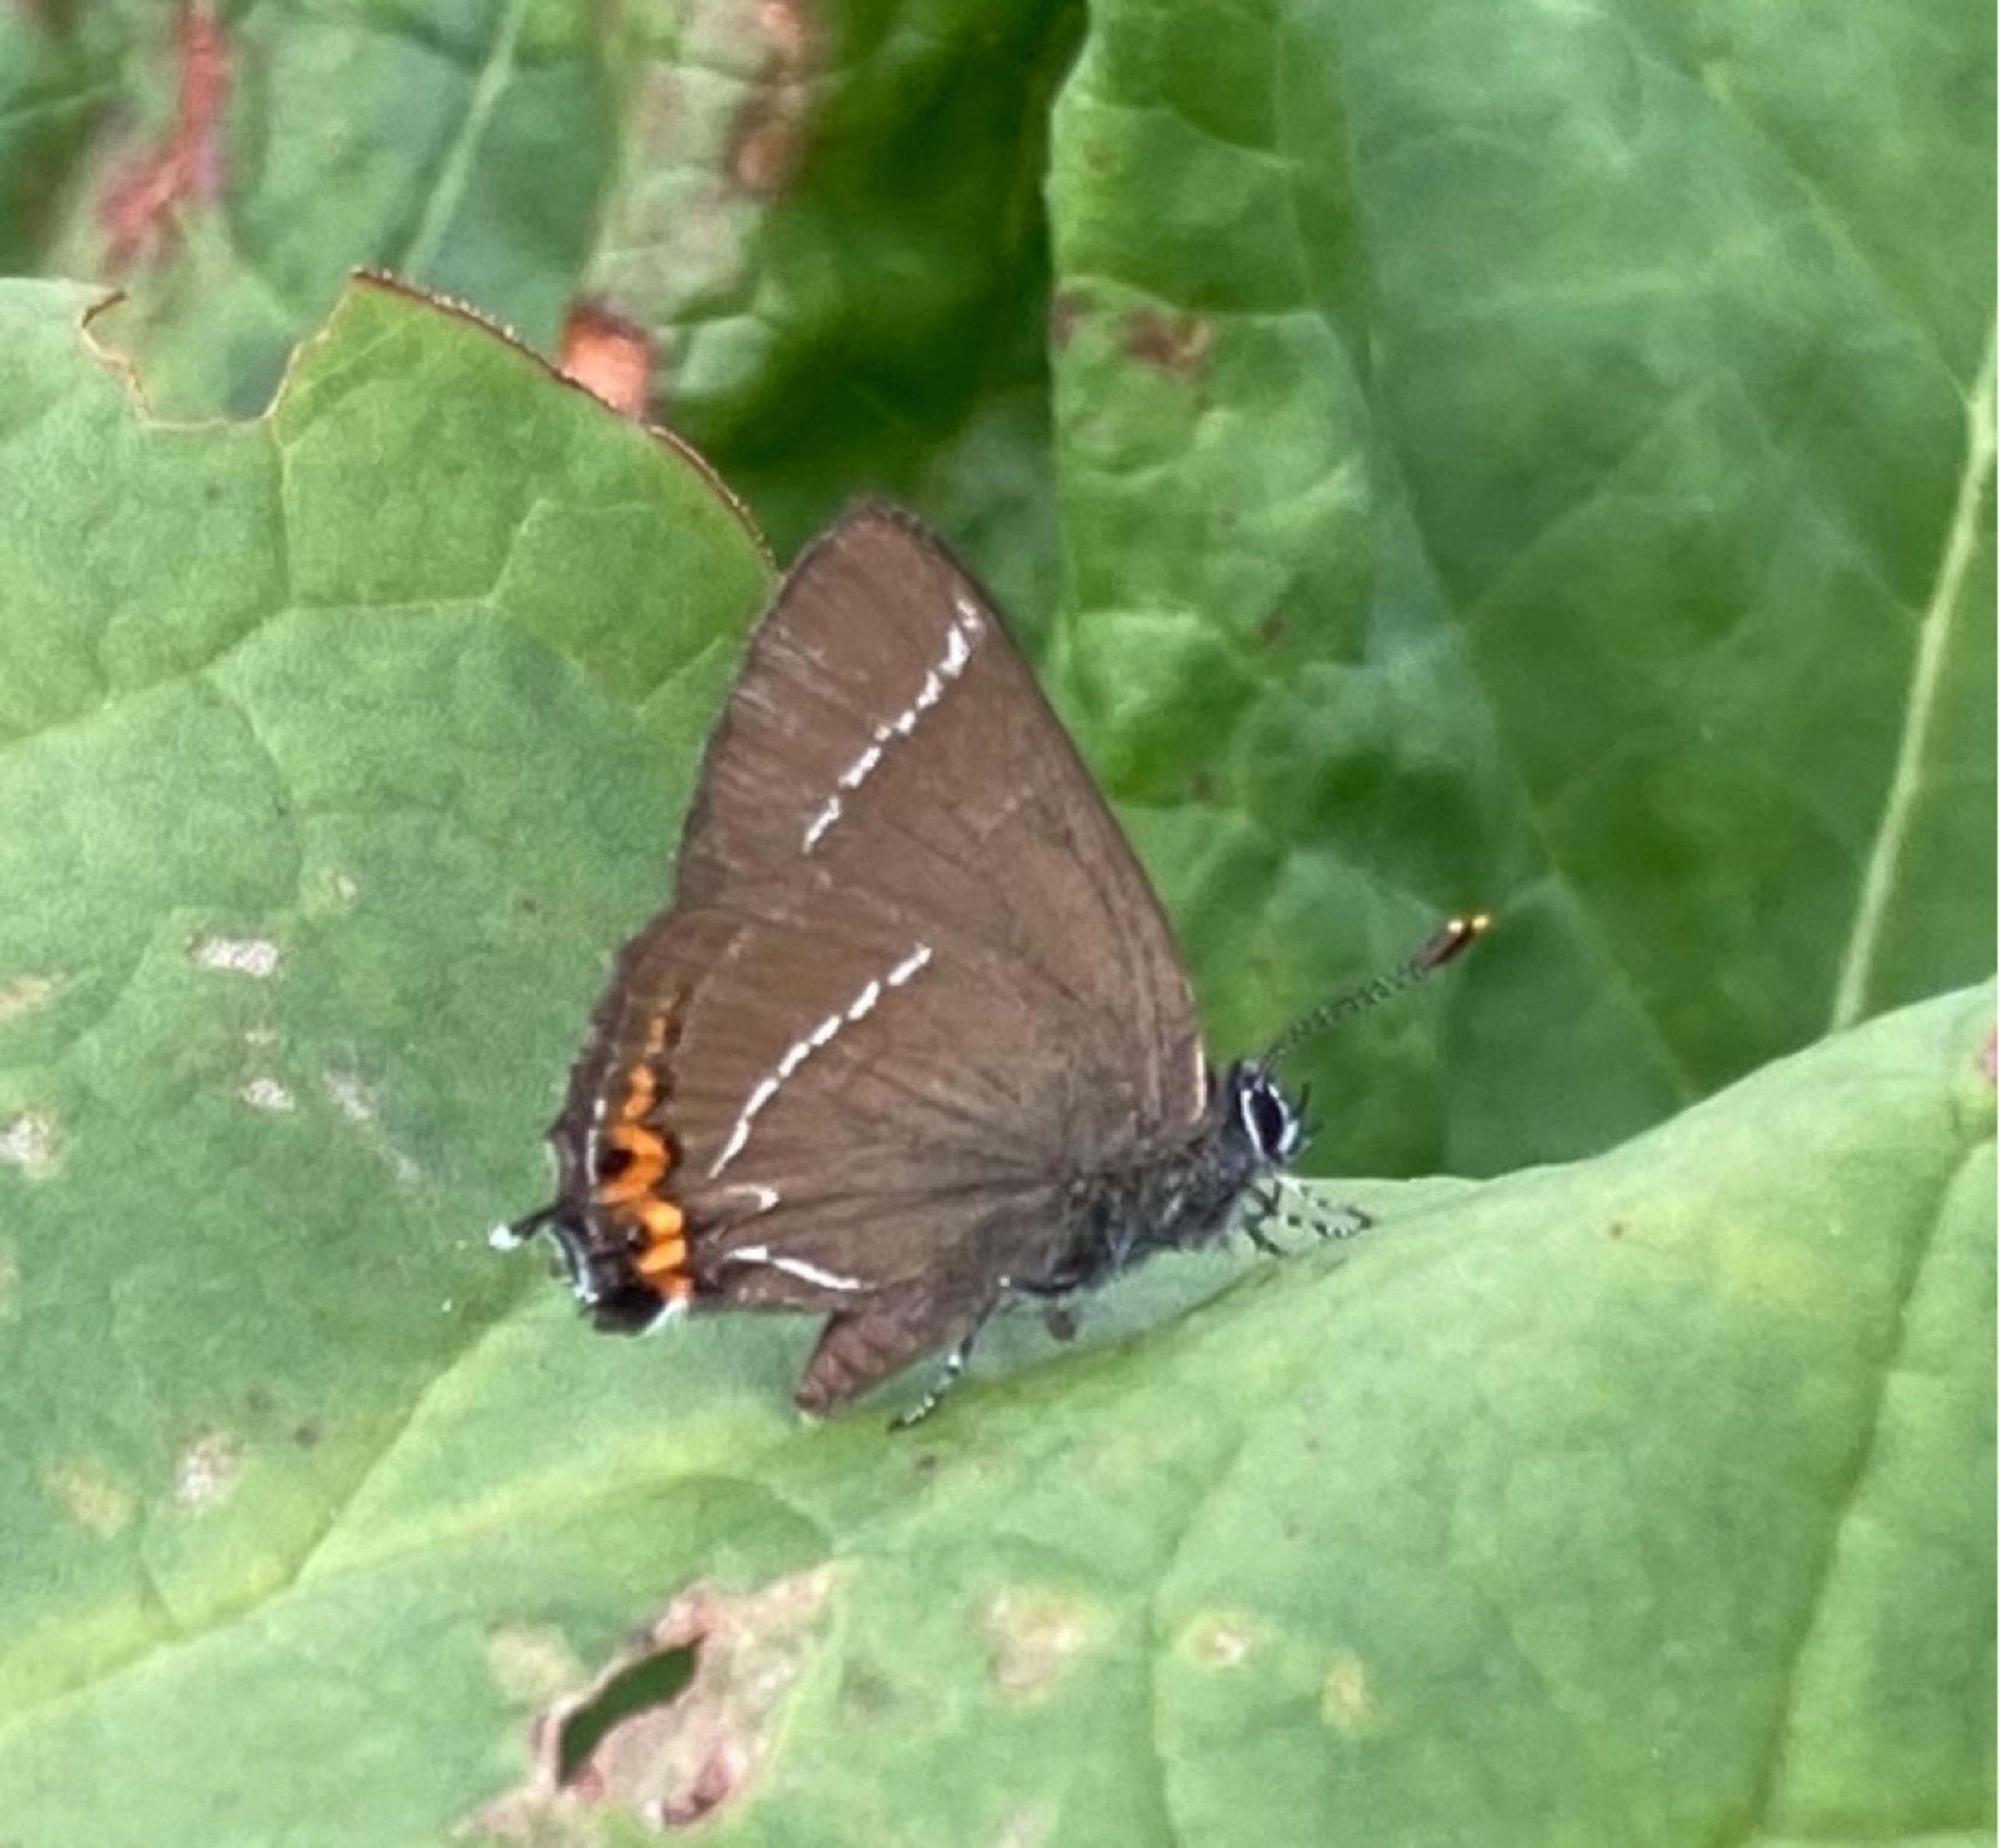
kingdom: Animalia
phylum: Arthropoda
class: Insecta
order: Lepidoptera
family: Lycaenidae
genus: Satyrium
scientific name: Satyrium w-album
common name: Det hvide W
